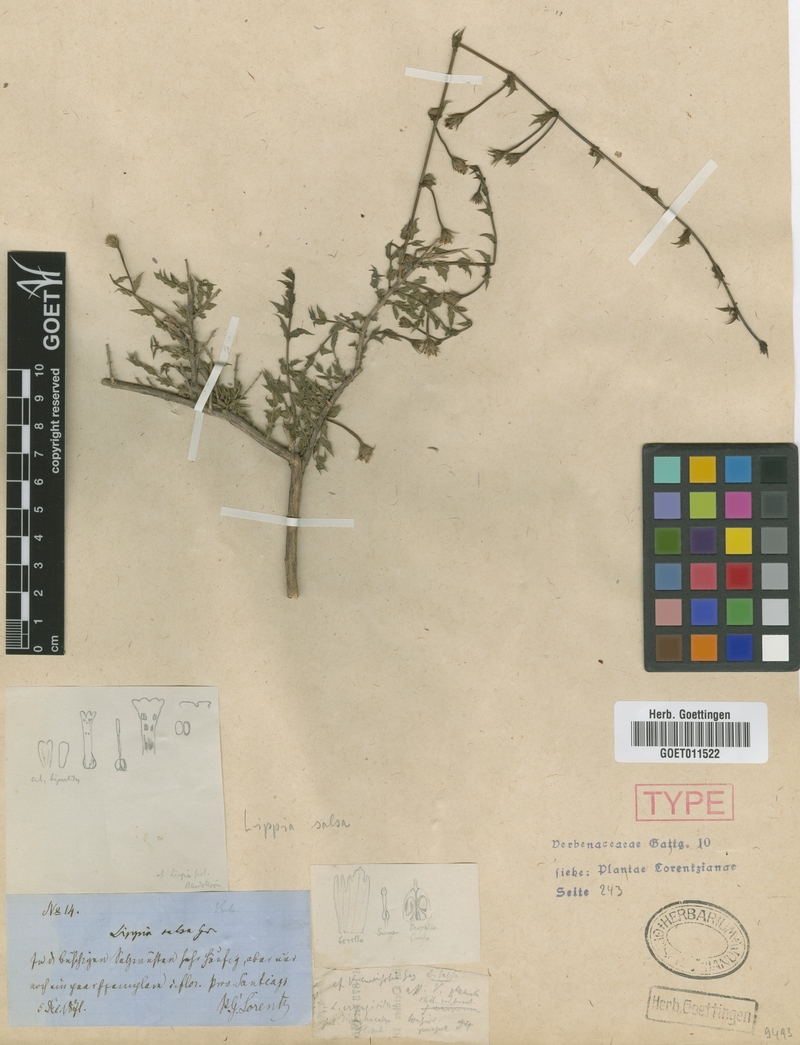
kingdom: Plantae
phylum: Tracheophyta
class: Magnoliopsida
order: Lamiales
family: Verbenaceae
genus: Lippia
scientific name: Lippia salsa
